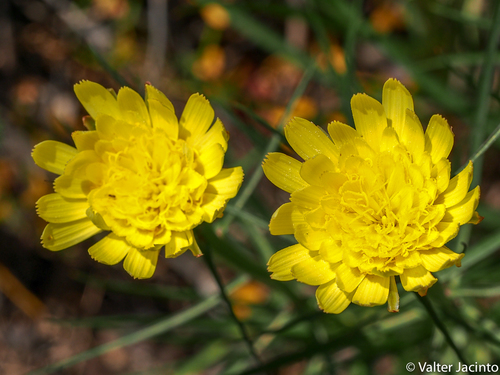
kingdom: Plantae
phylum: Tracheophyta
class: Magnoliopsida
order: Asterales
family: Asteraceae
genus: Scorzonera
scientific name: Scorzonera angustifolia
